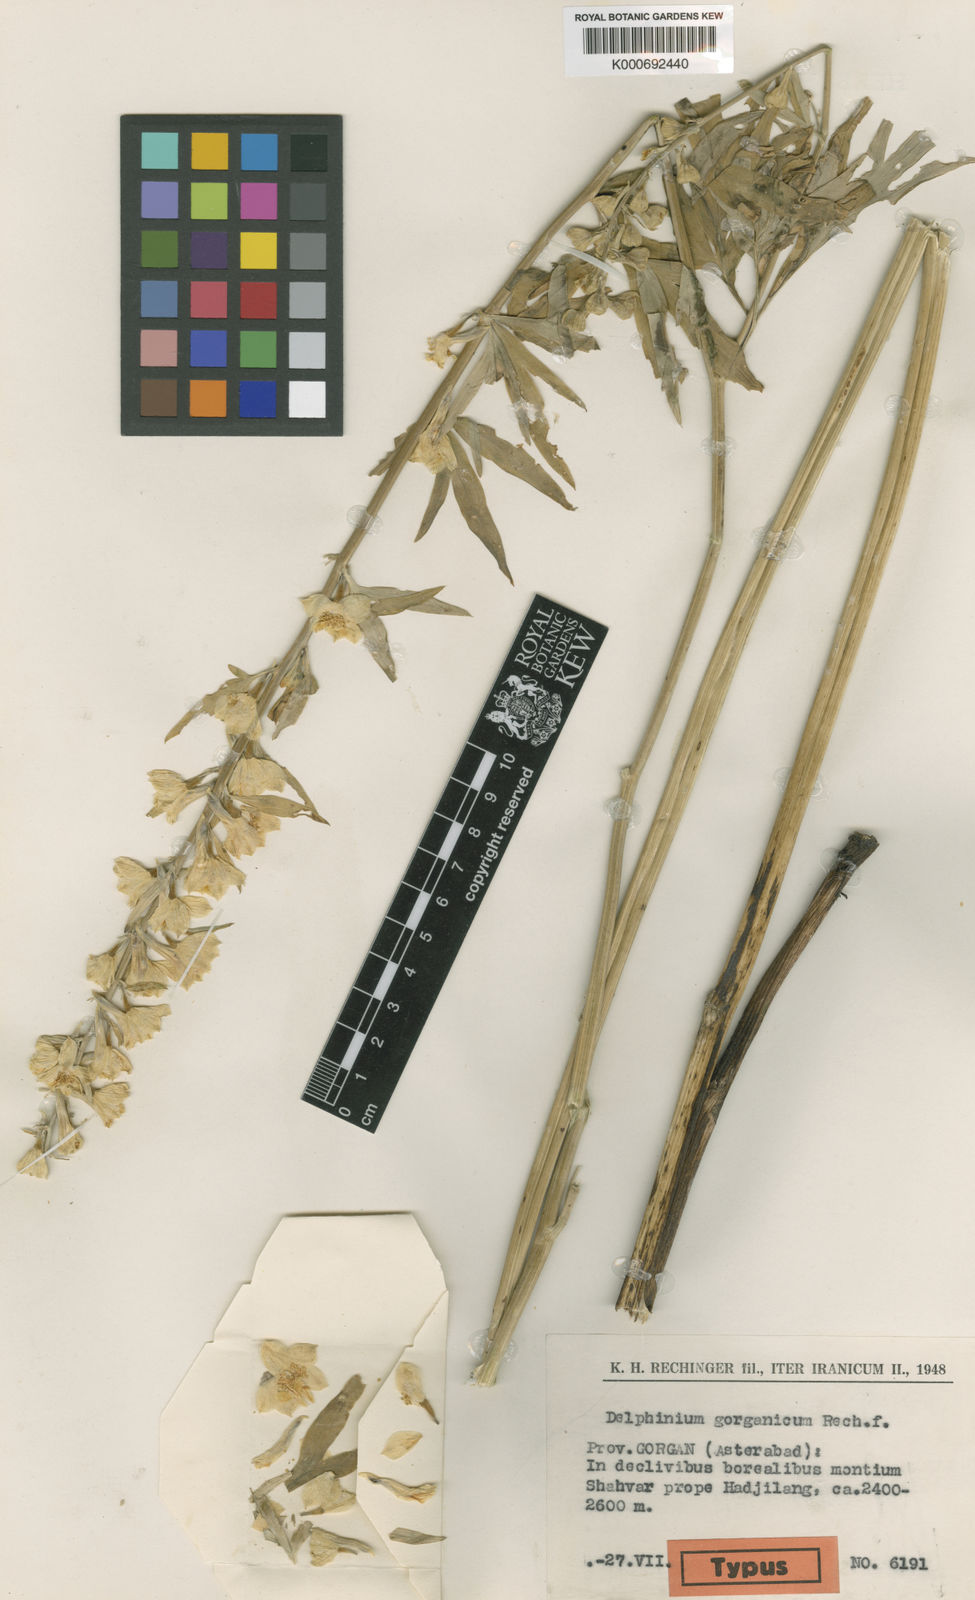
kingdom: Plantae
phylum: Tracheophyta
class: Magnoliopsida
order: Ranunculales
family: Ranunculaceae
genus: Delphinium
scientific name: Delphinium biternatum
